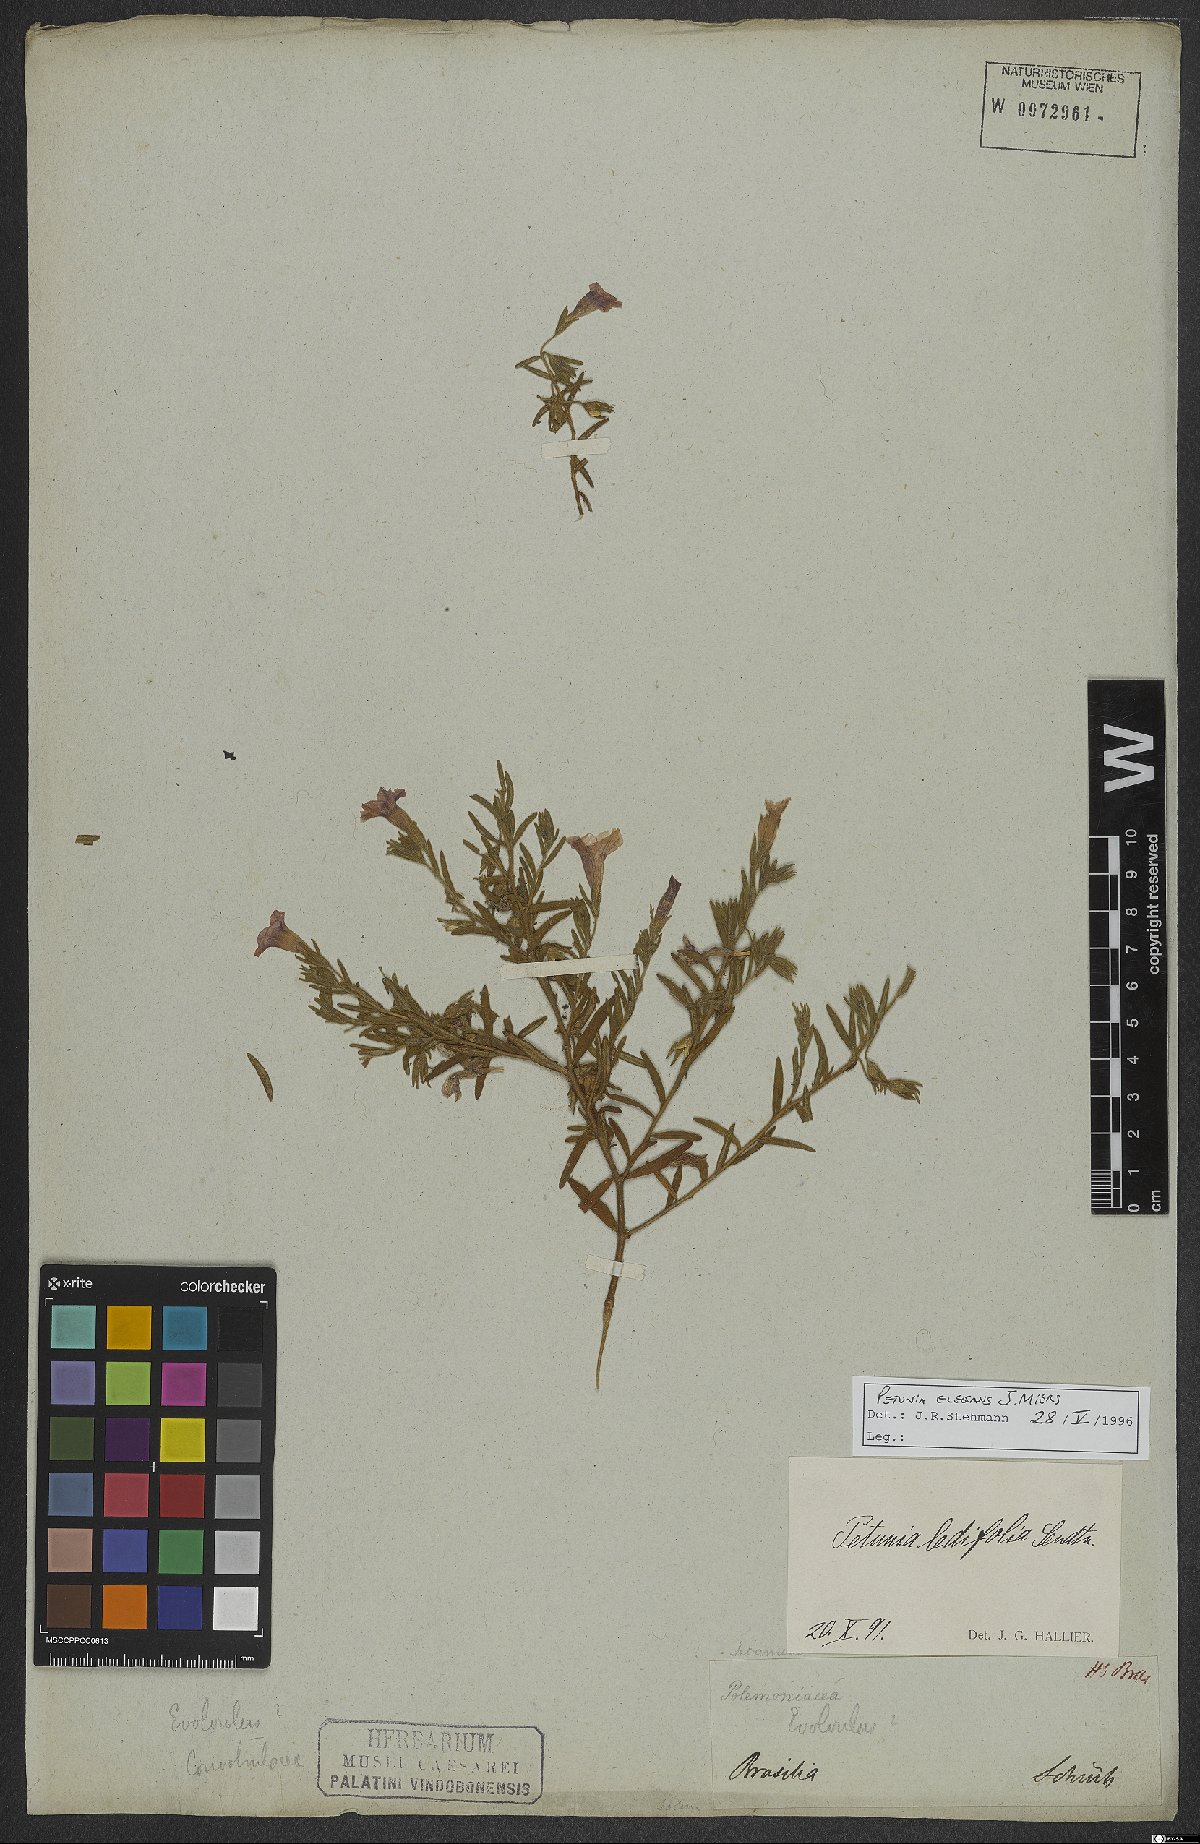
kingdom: Plantae
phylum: Tracheophyta
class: Magnoliopsida
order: Solanales
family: Solanaceae
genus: Calibrachoa
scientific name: Calibrachoa elegans
